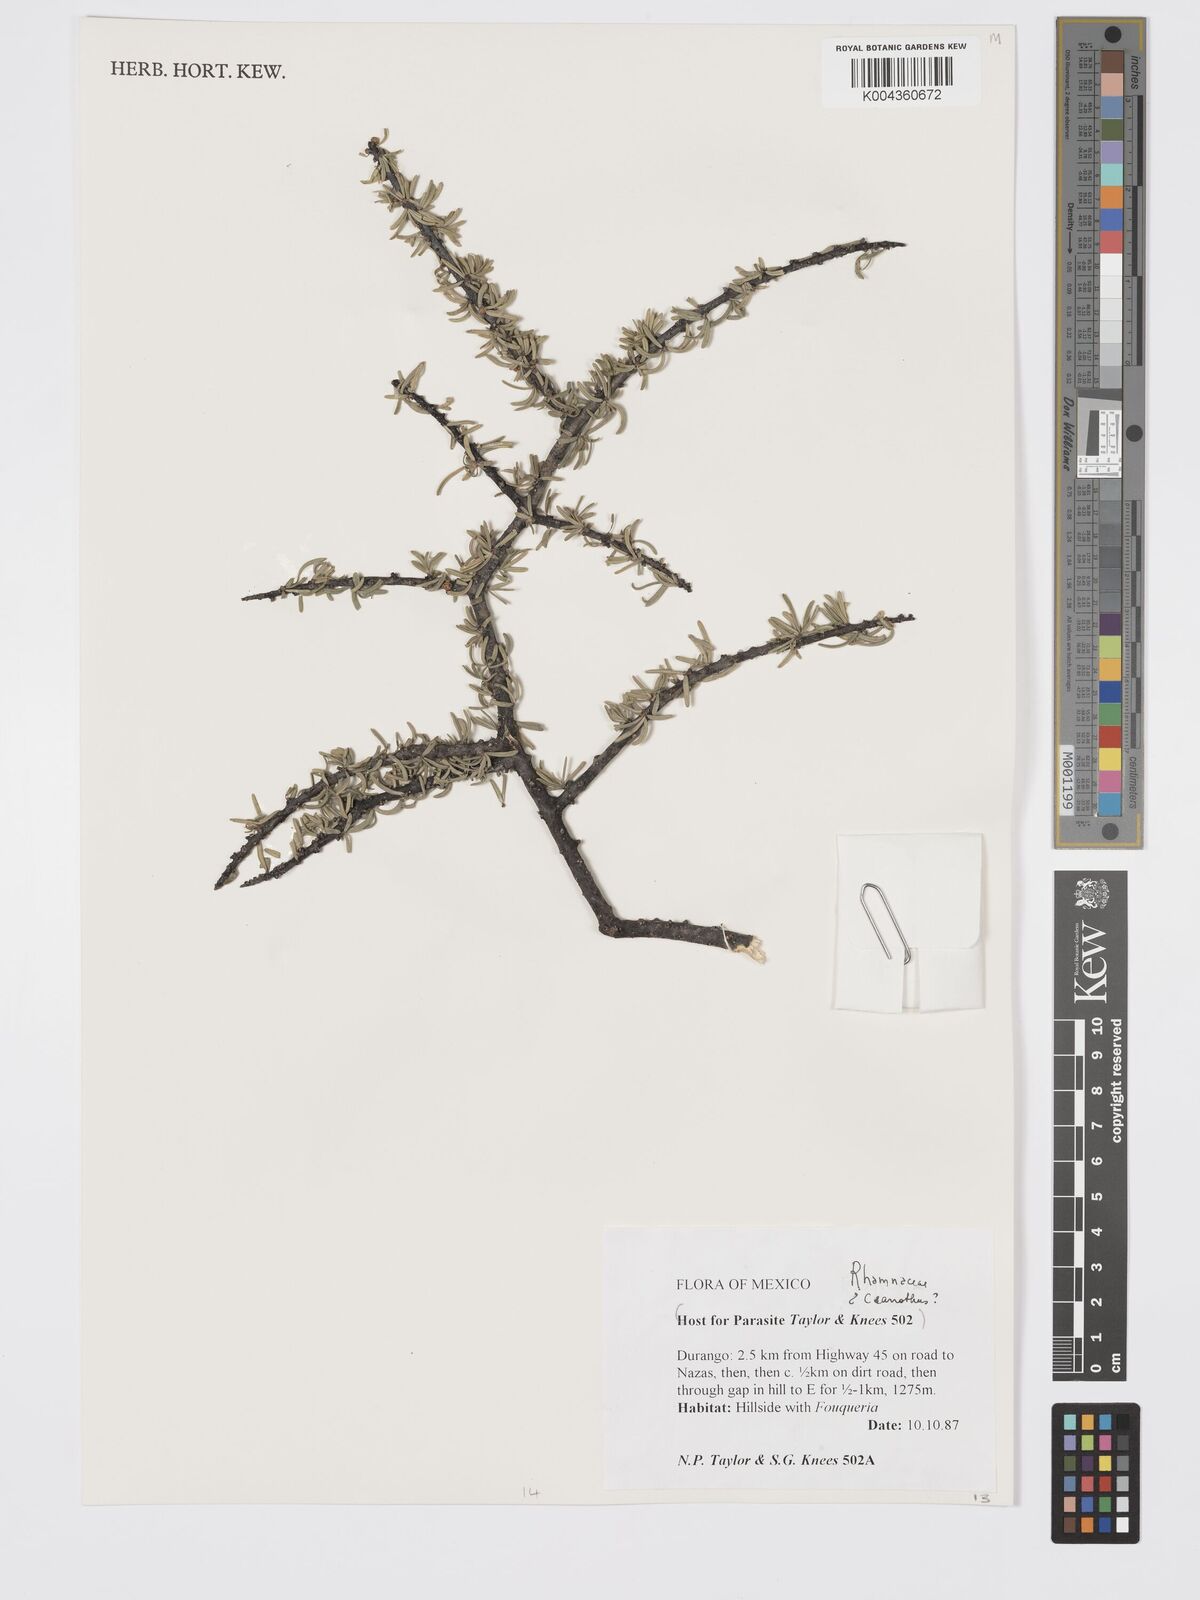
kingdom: Plantae
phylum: Tracheophyta
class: Magnoliopsida
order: Rosales
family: Rhamnaceae
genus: Ceanothus
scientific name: Ceanothus
